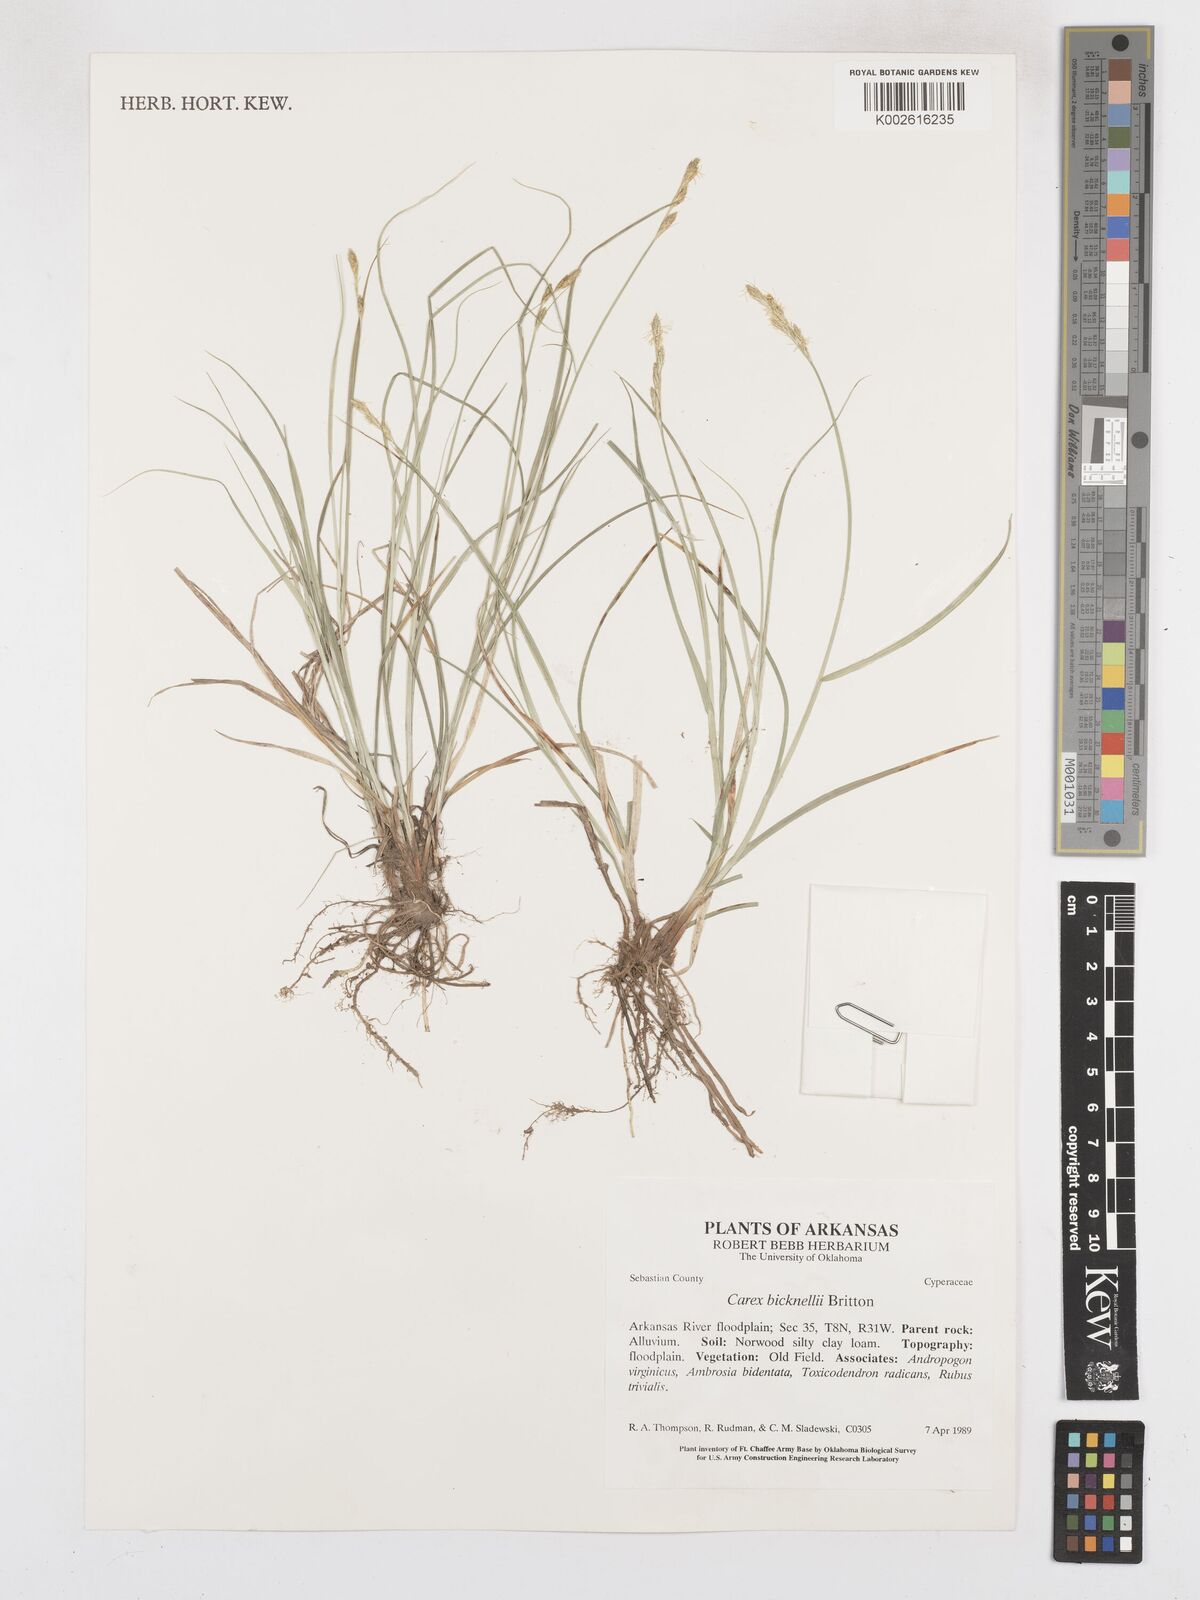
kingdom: Plantae
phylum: Tracheophyta
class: Liliopsida
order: Poales
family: Cyperaceae
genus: Carex
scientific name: Carex bicknellii
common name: Bicknell's sedge
